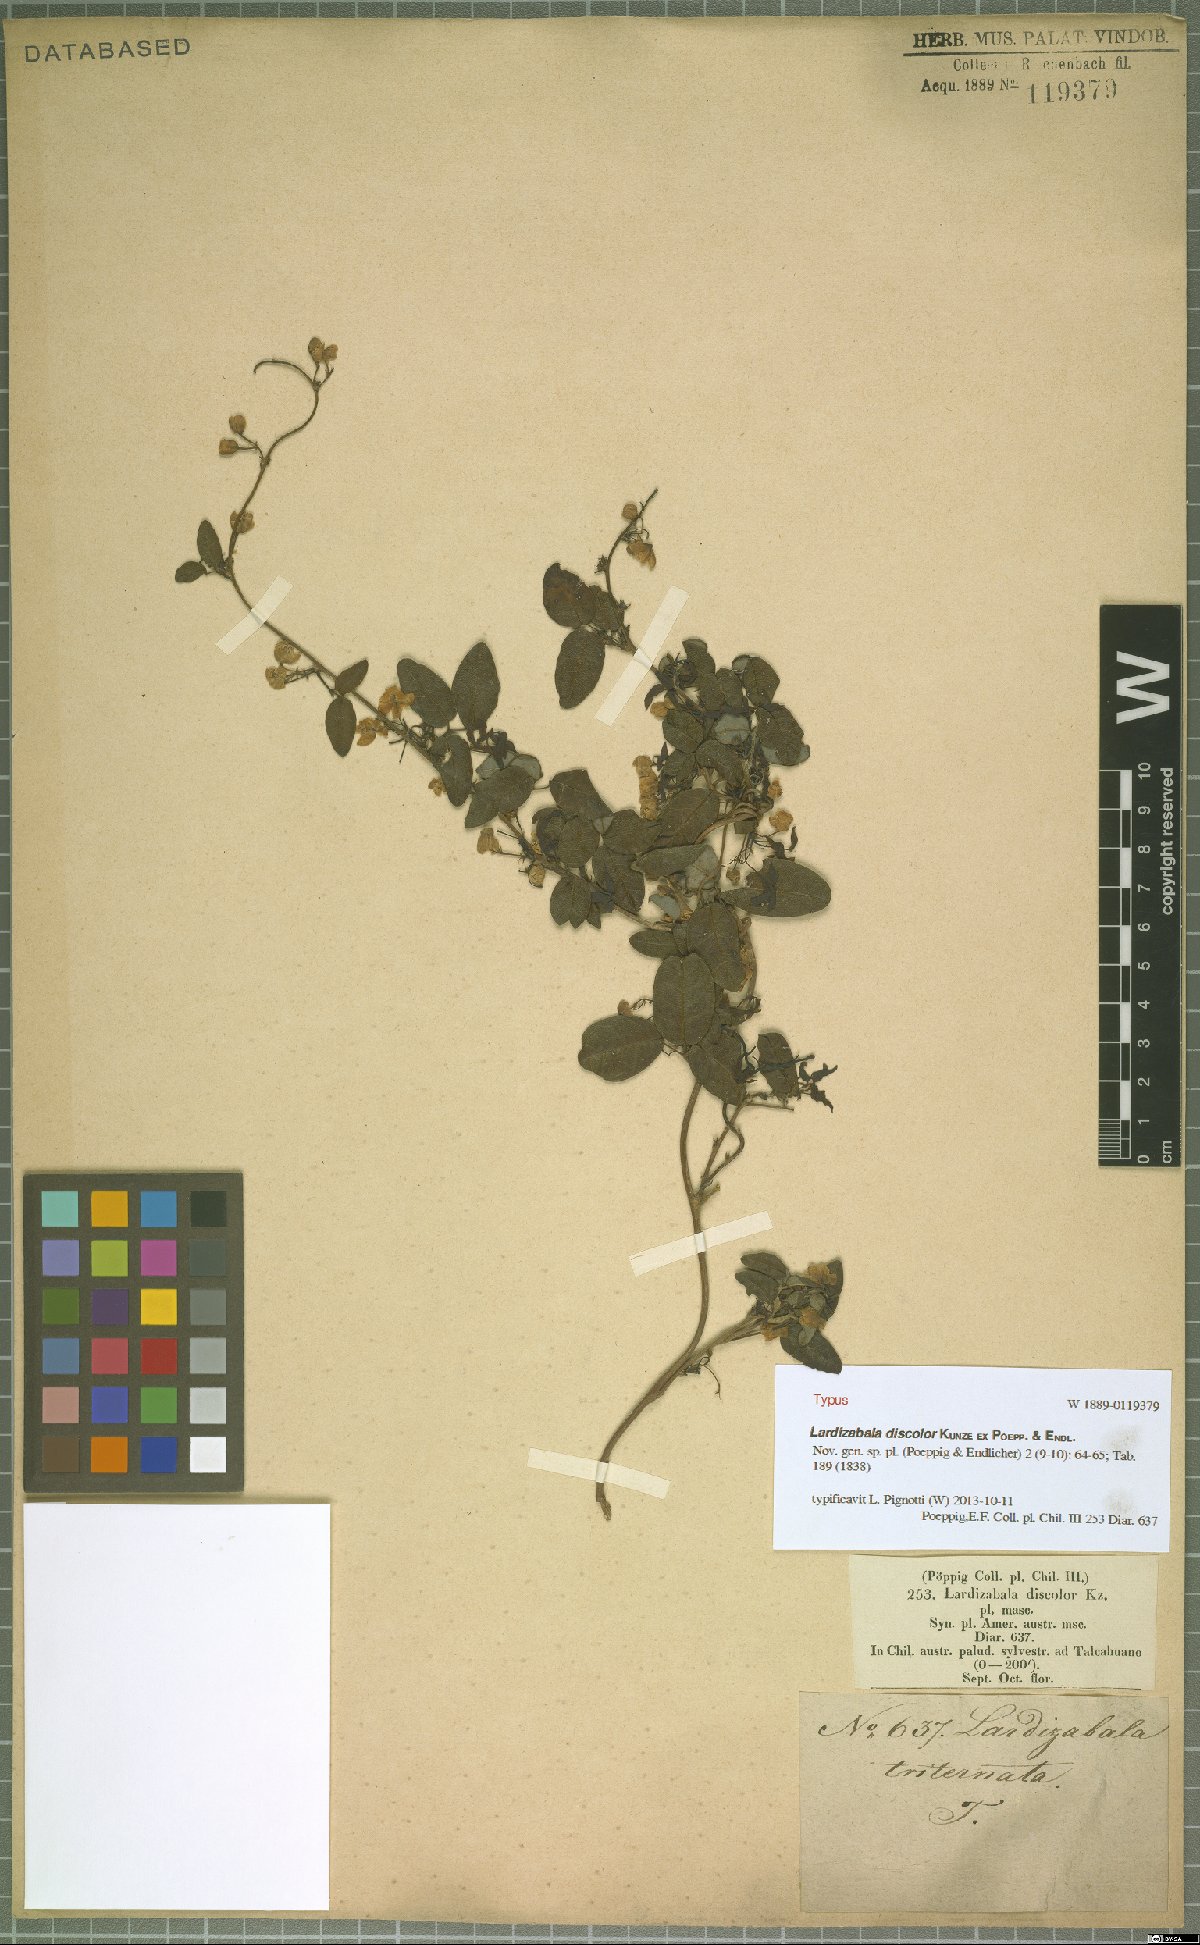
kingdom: Plantae
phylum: Tracheophyta
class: Magnoliopsida
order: Ranunculales
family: Lardizabalaceae
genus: Boquila
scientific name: Boquila trifoliolata
